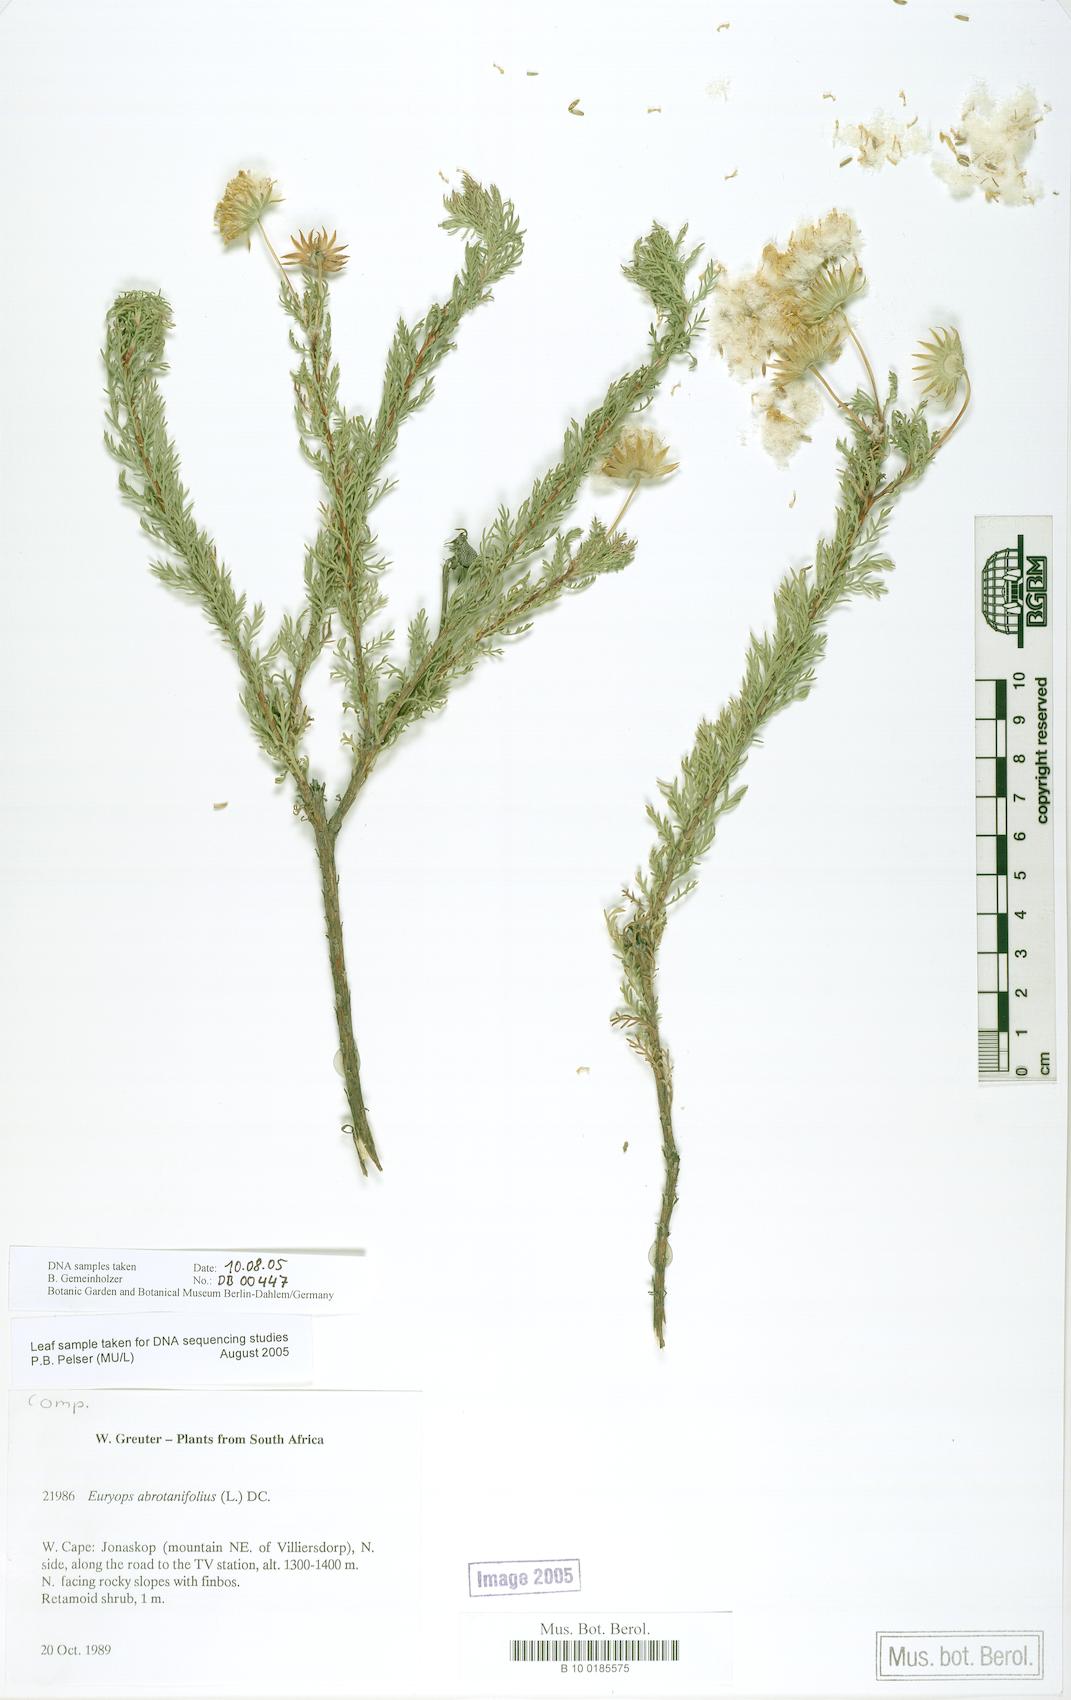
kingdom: Plantae
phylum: Tracheophyta
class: Magnoliopsida
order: Asterales
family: Asteraceae
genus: Euryops
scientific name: Euryops abrotanifolius
